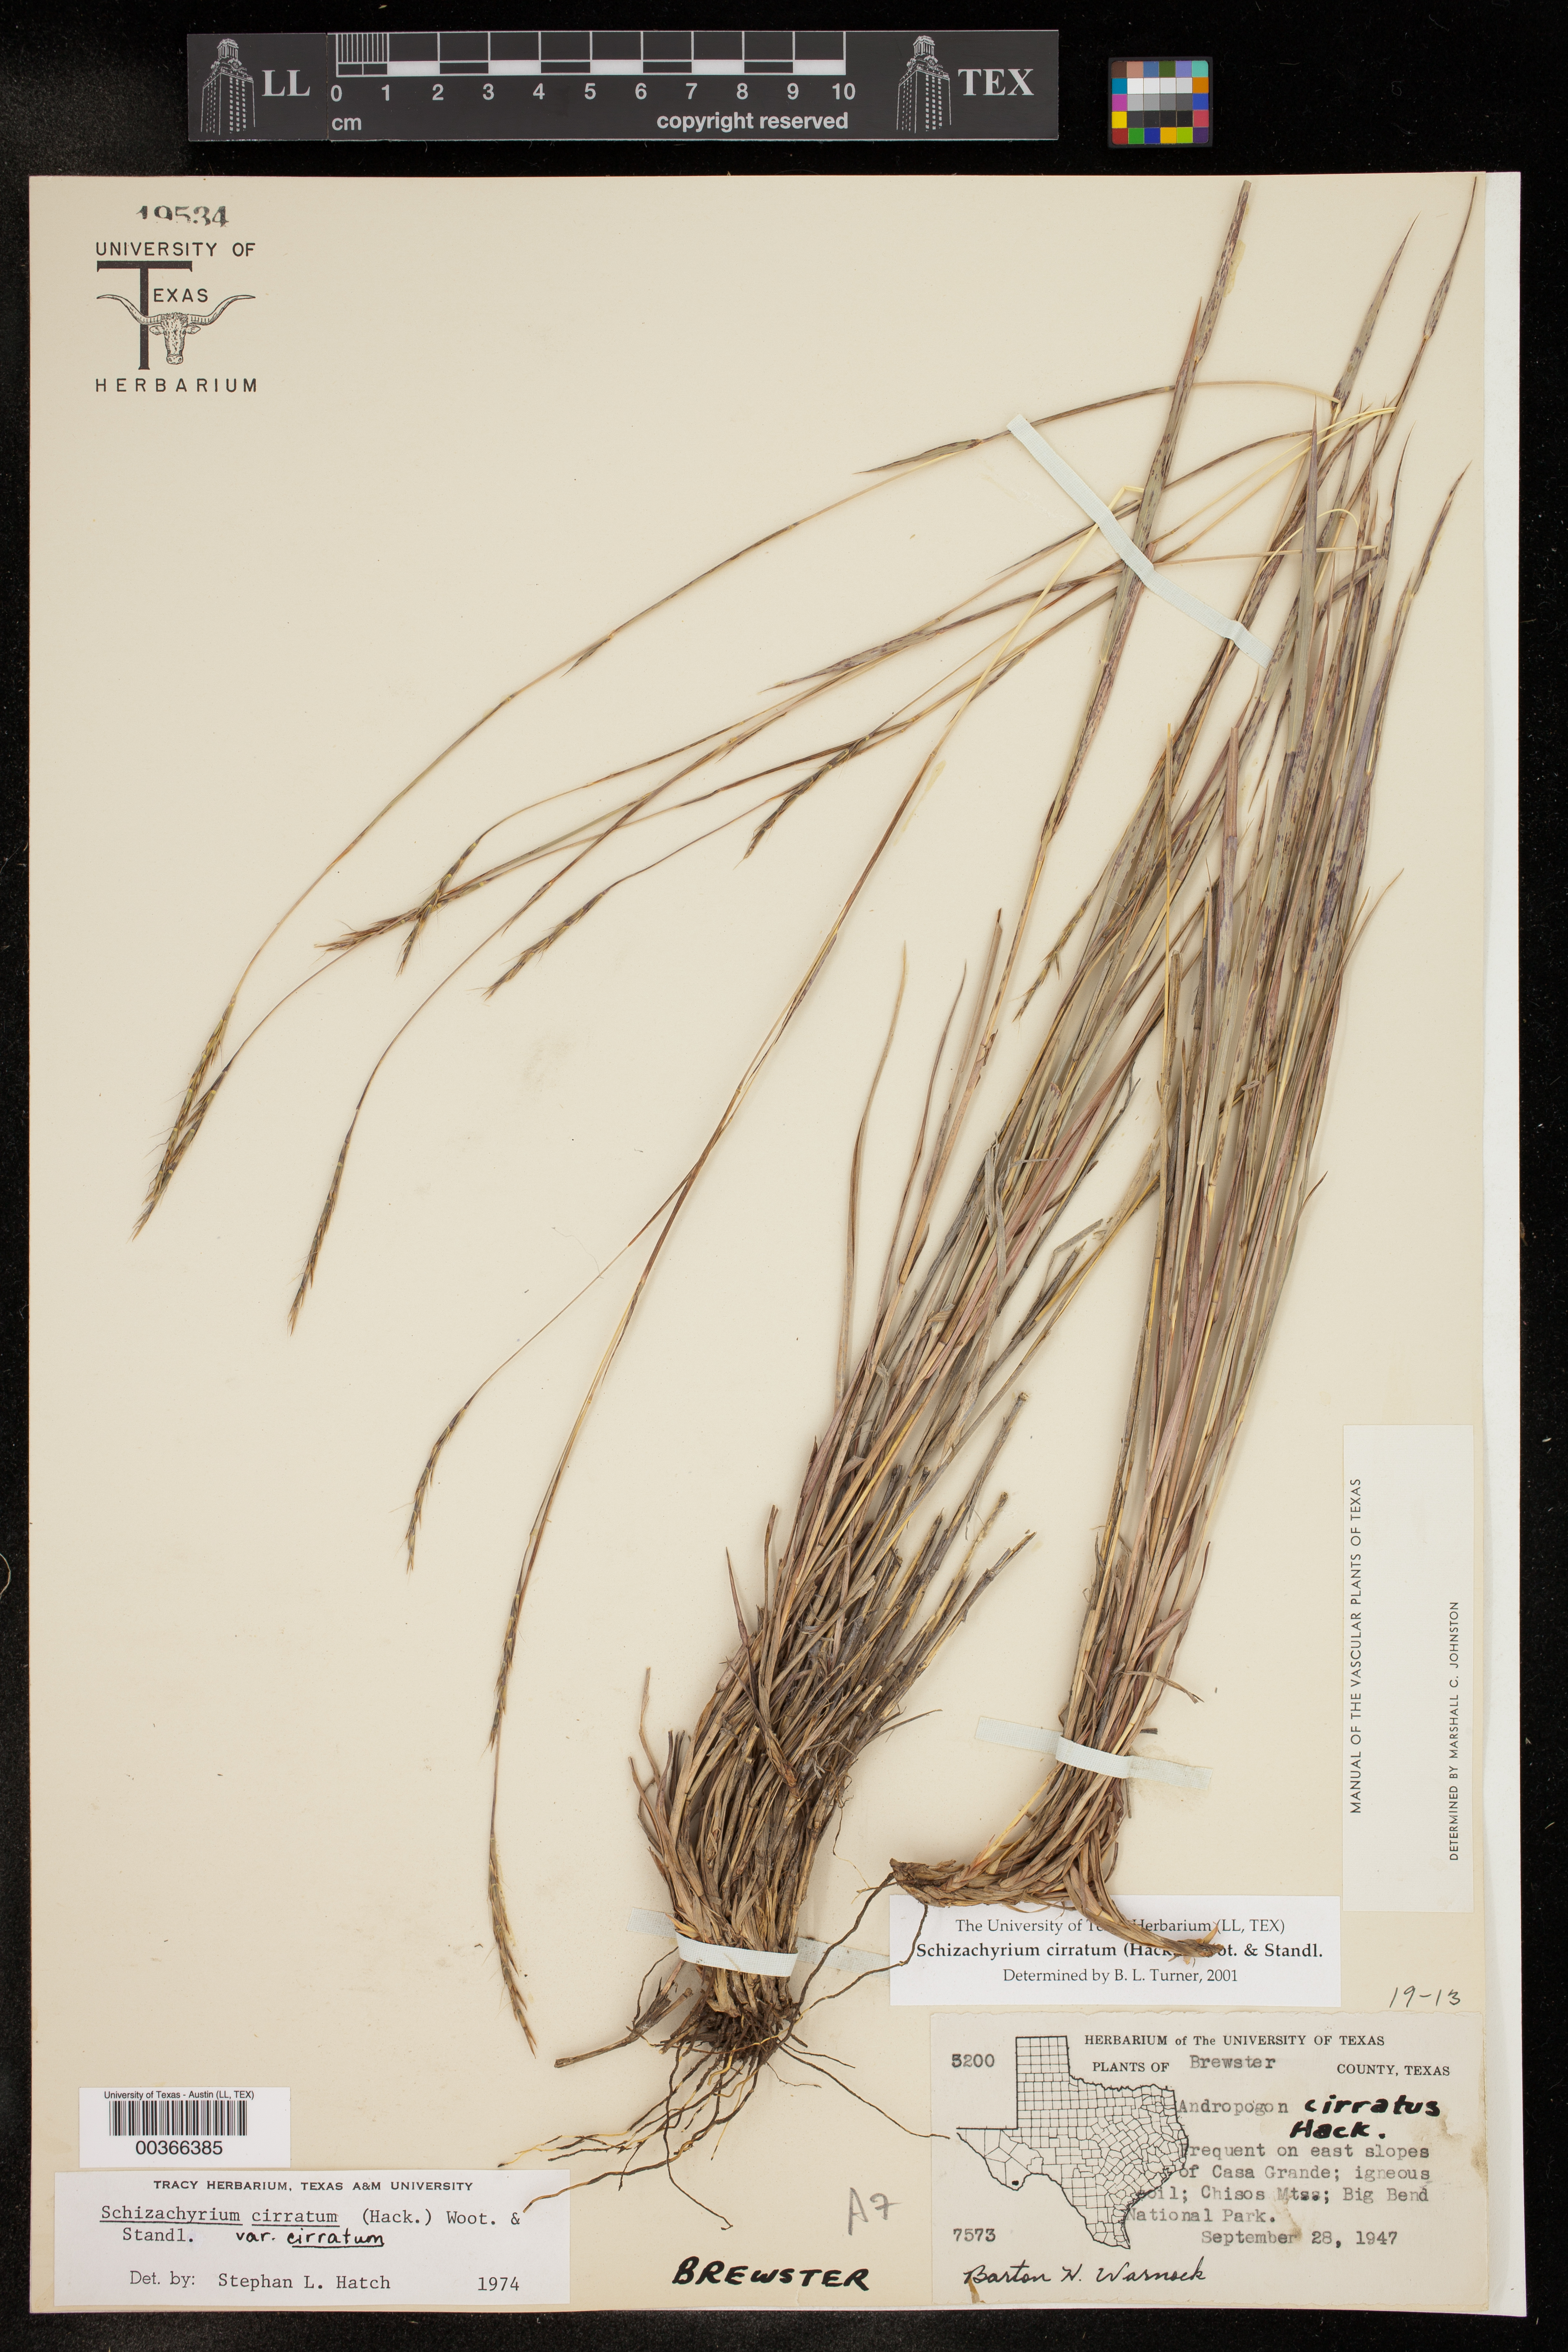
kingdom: Plantae
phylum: Tracheophyta
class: Liliopsida
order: Poales
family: Poaceae
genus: Andropogon
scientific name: Andropogon cirratus
